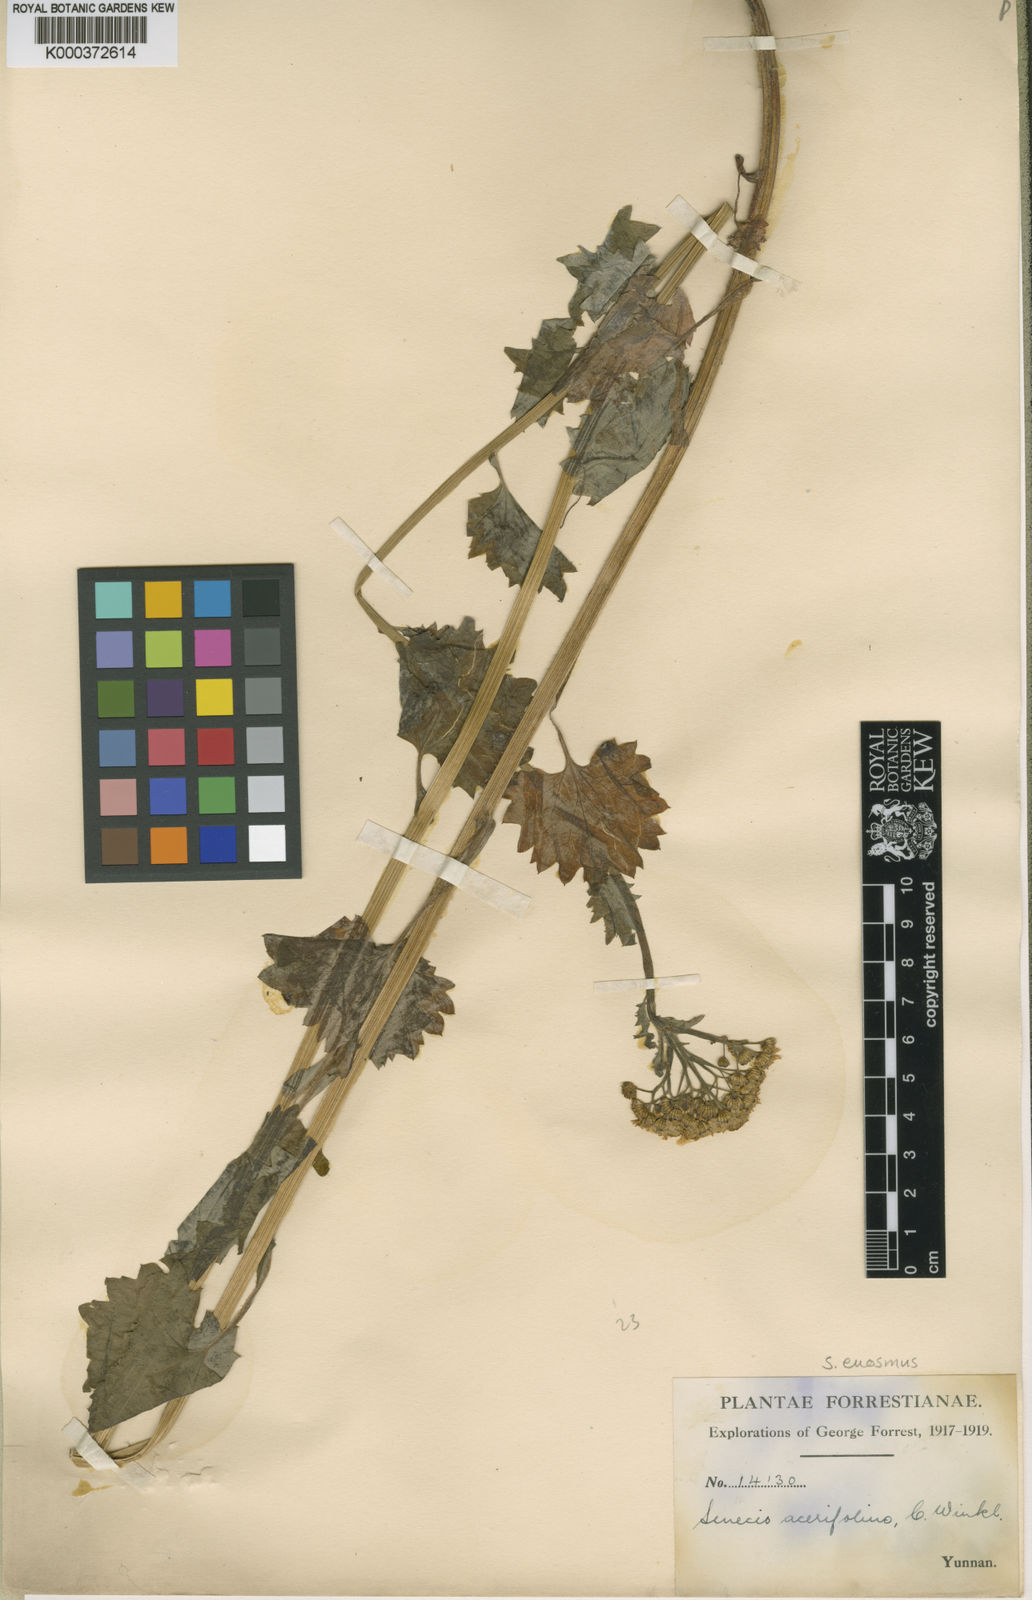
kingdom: Plantae
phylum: Tracheophyta
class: Magnoliopsida
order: Asterales
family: Asteraceae
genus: Sinosenecio
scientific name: Sinosenecio euosmus
